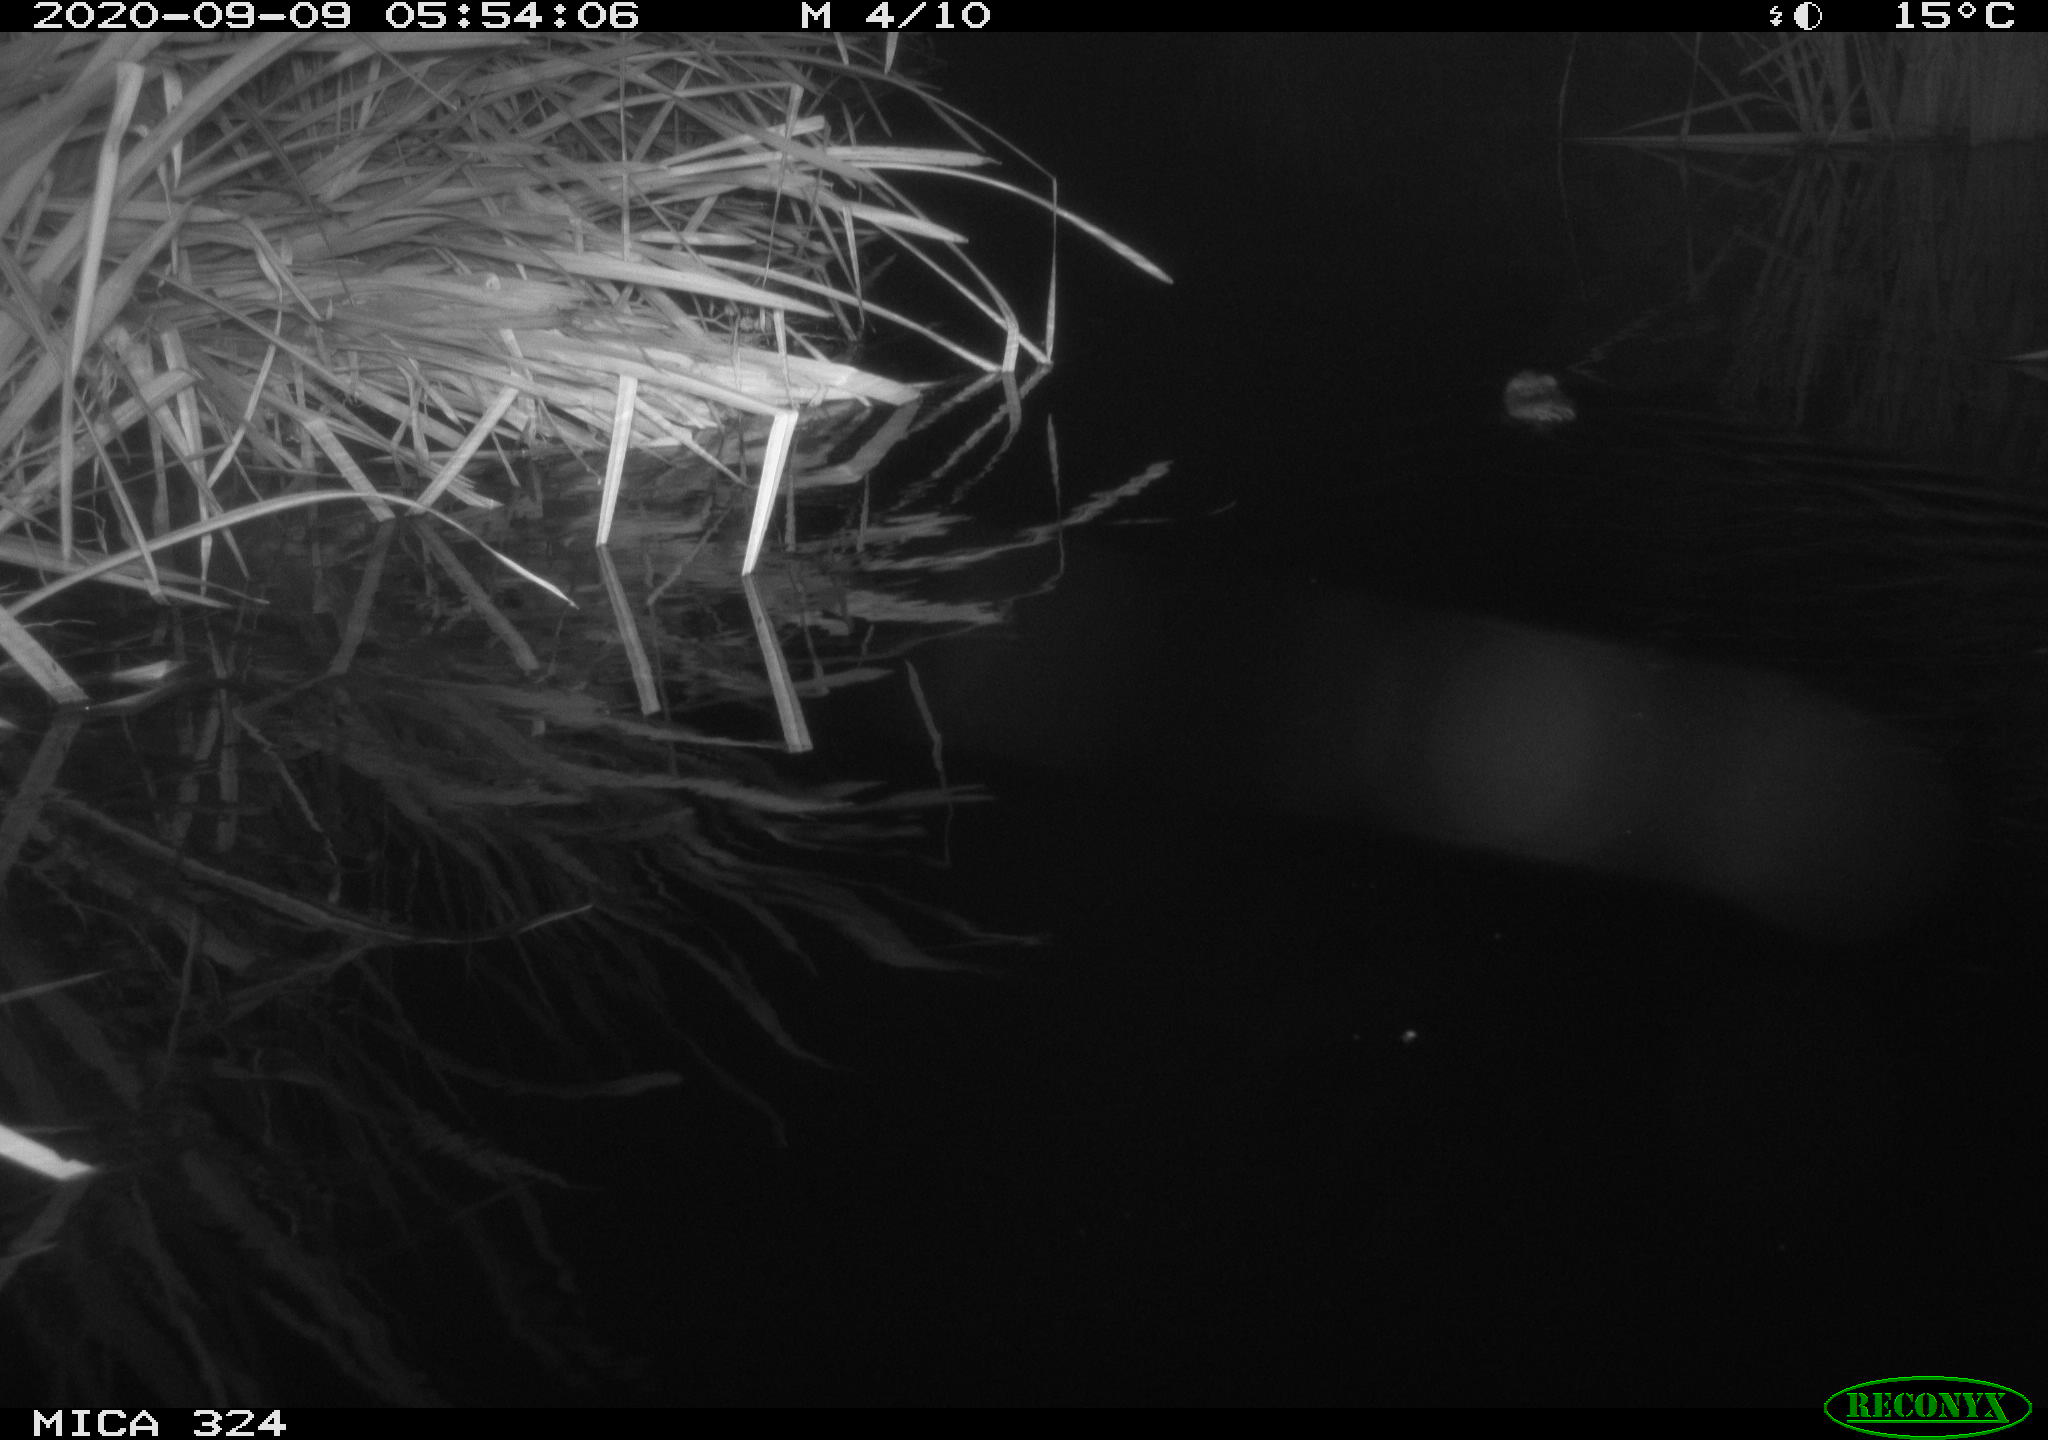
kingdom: Animalia
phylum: Chordata
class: Mammalia
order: Rodentia
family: Cricetidae
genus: Ondatra
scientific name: Ondatra zibethicus
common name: Muskrat
